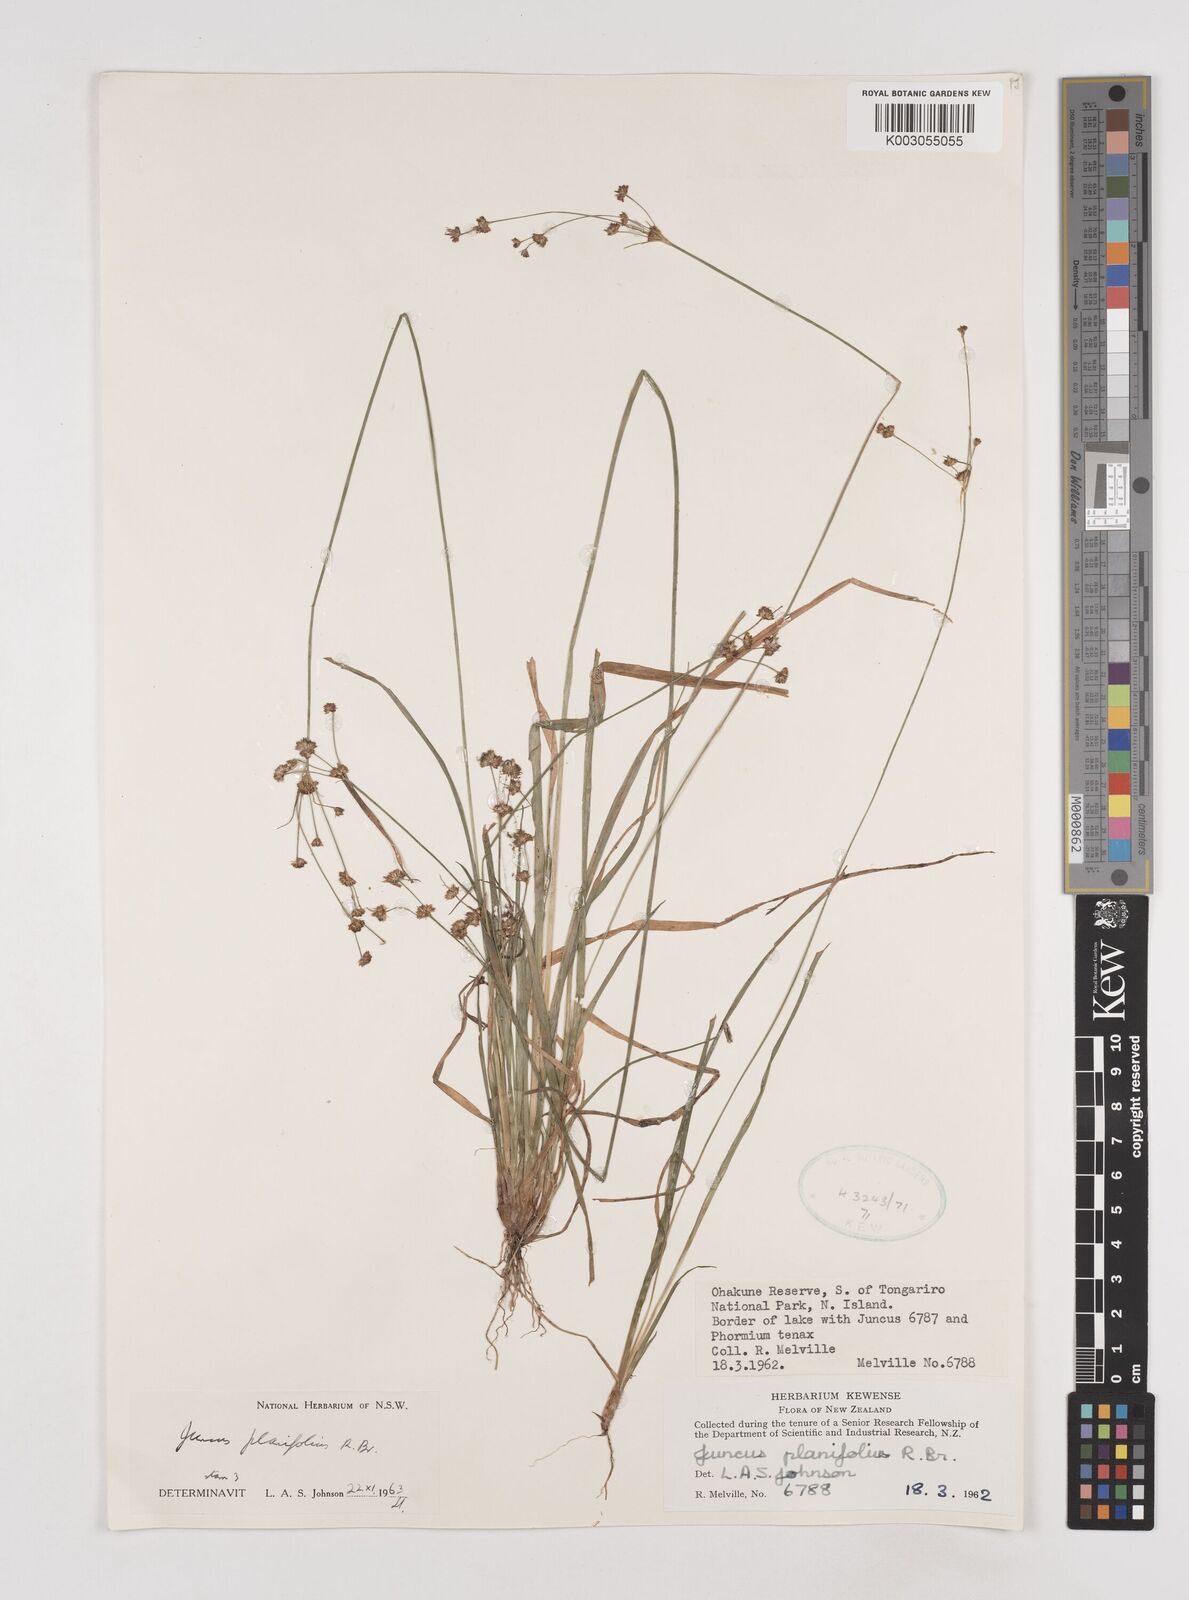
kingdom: Plantae
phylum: Tracheophyta
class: Liliopsida
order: Poales
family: Juncaceae
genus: Juncus
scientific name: Juncus planifolius
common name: Broadleaf rush
